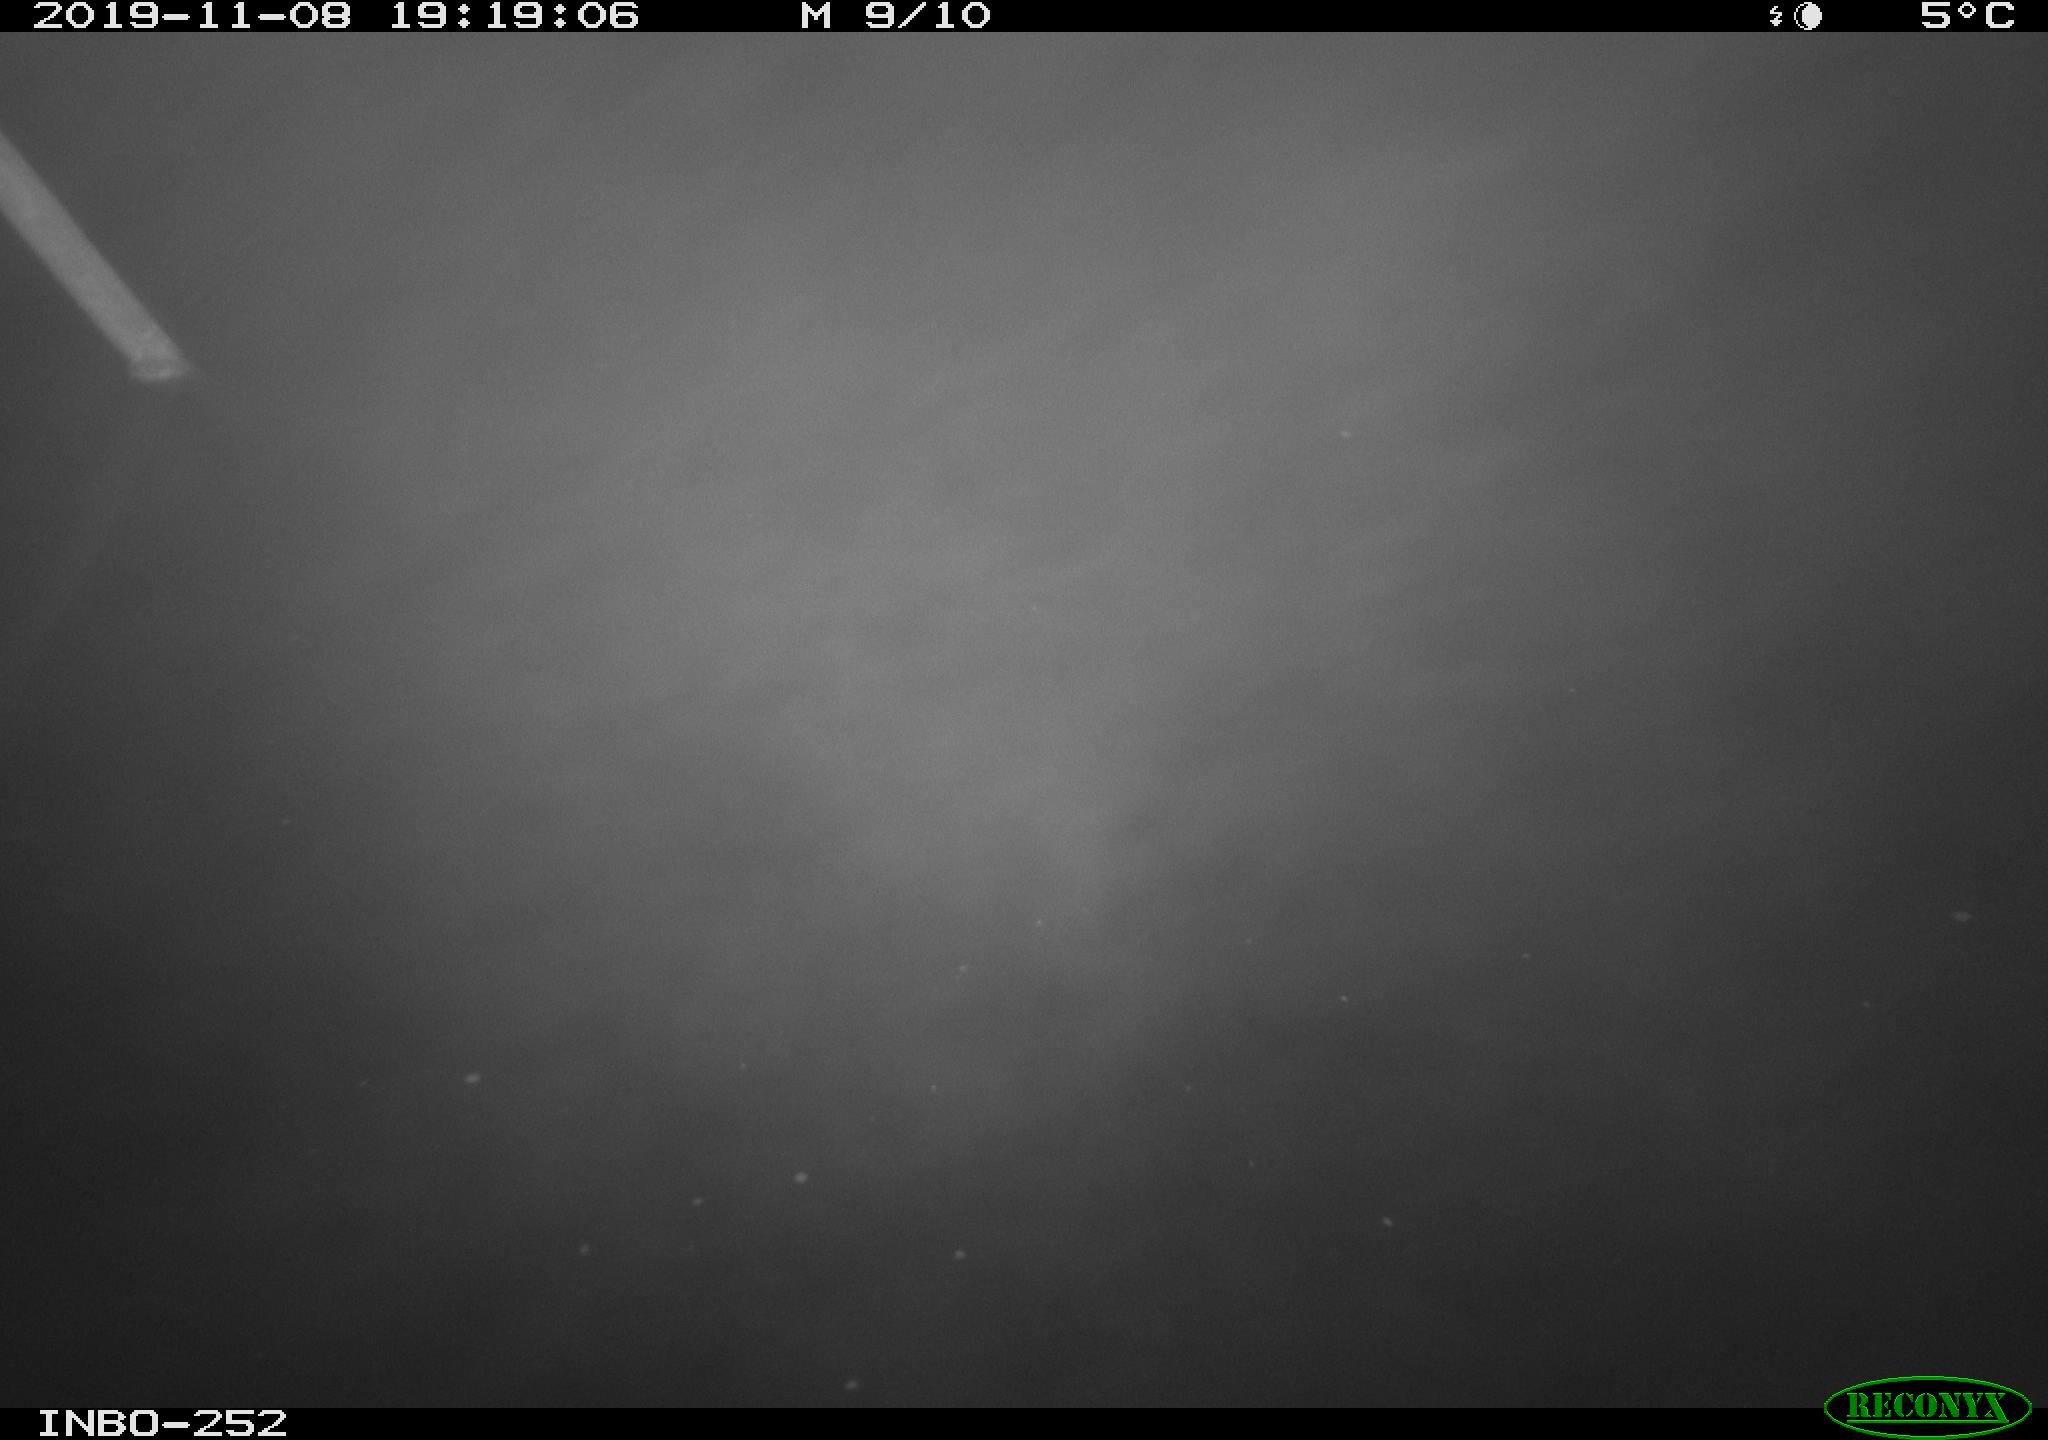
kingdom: Animalia
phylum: Chordata
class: Aves
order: Anseriformes
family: Anatidae
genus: Anas
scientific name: Anas platyrhynchos
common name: Mallard
